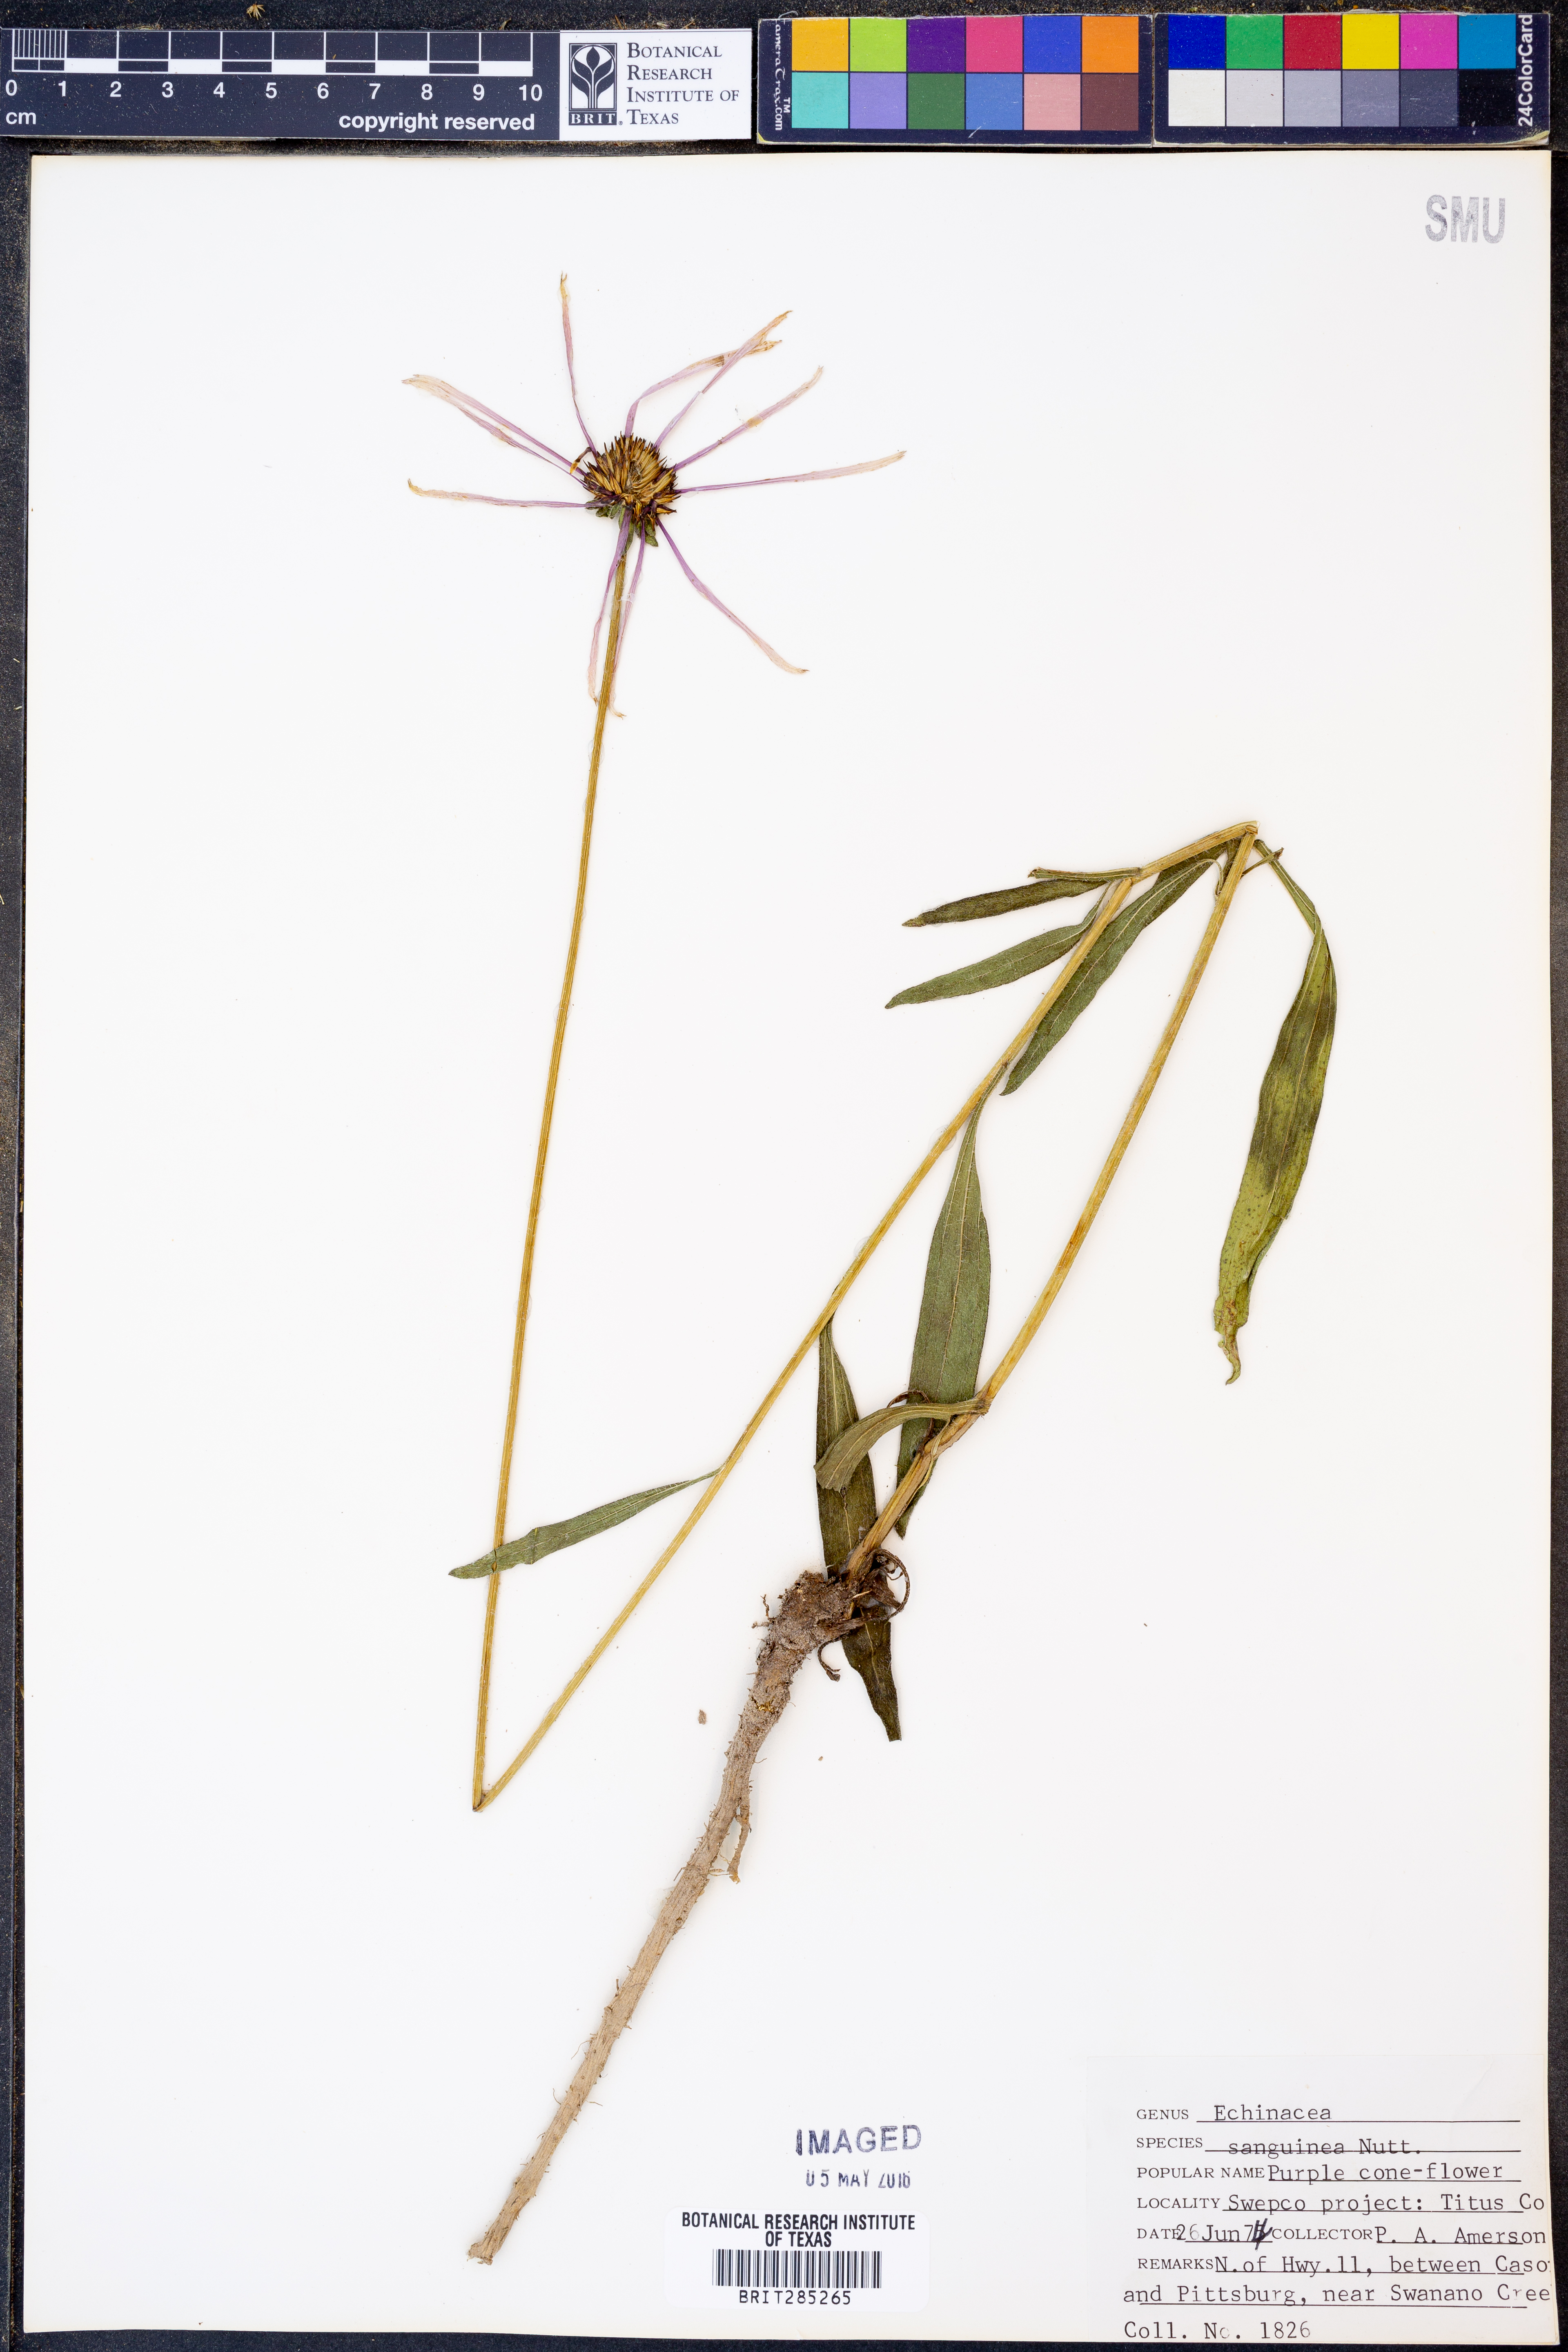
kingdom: Plantae
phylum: Tracheophyta
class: Magnoliopsida
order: Asterales
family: Asteraceae
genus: Echinacea
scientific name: Echinacea sanguinea
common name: Sanguine purple-coneflower
